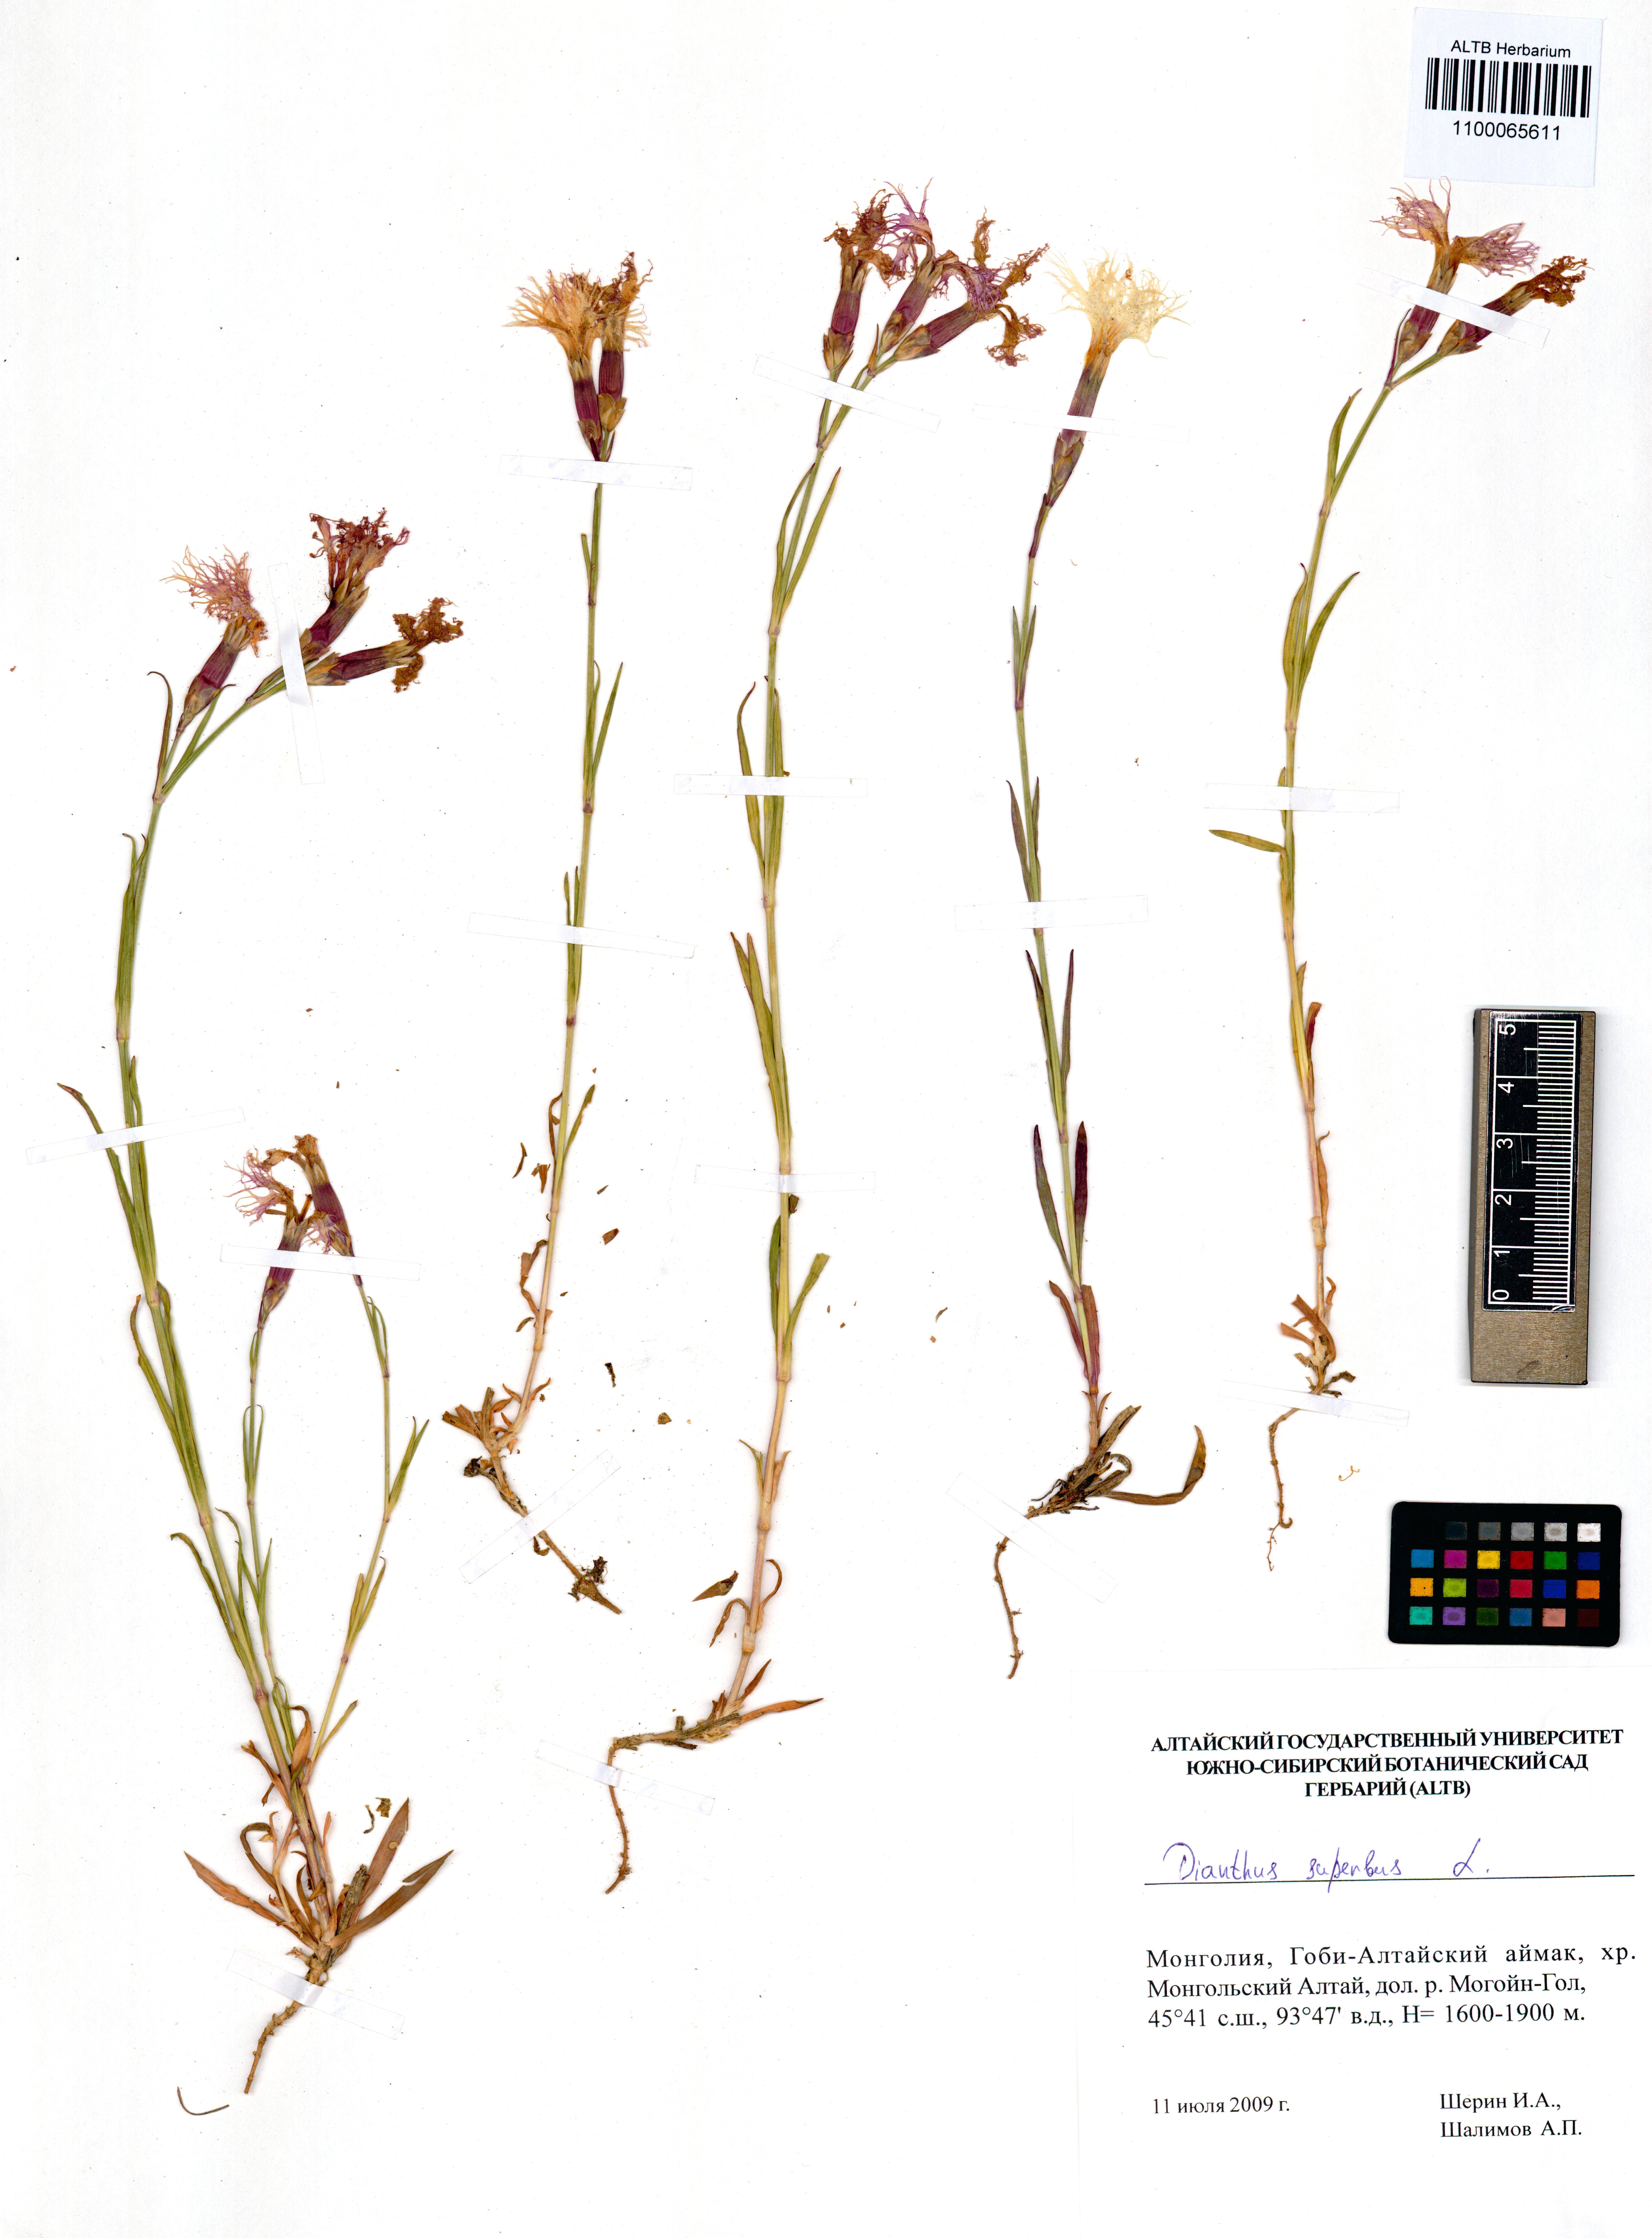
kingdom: Plantae
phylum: Tracheophyta
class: Magnoliopsida
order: Caryophyllales
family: Caryophyllaceae
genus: Dianthus
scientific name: Dianthus superbus
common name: Fringed pink
